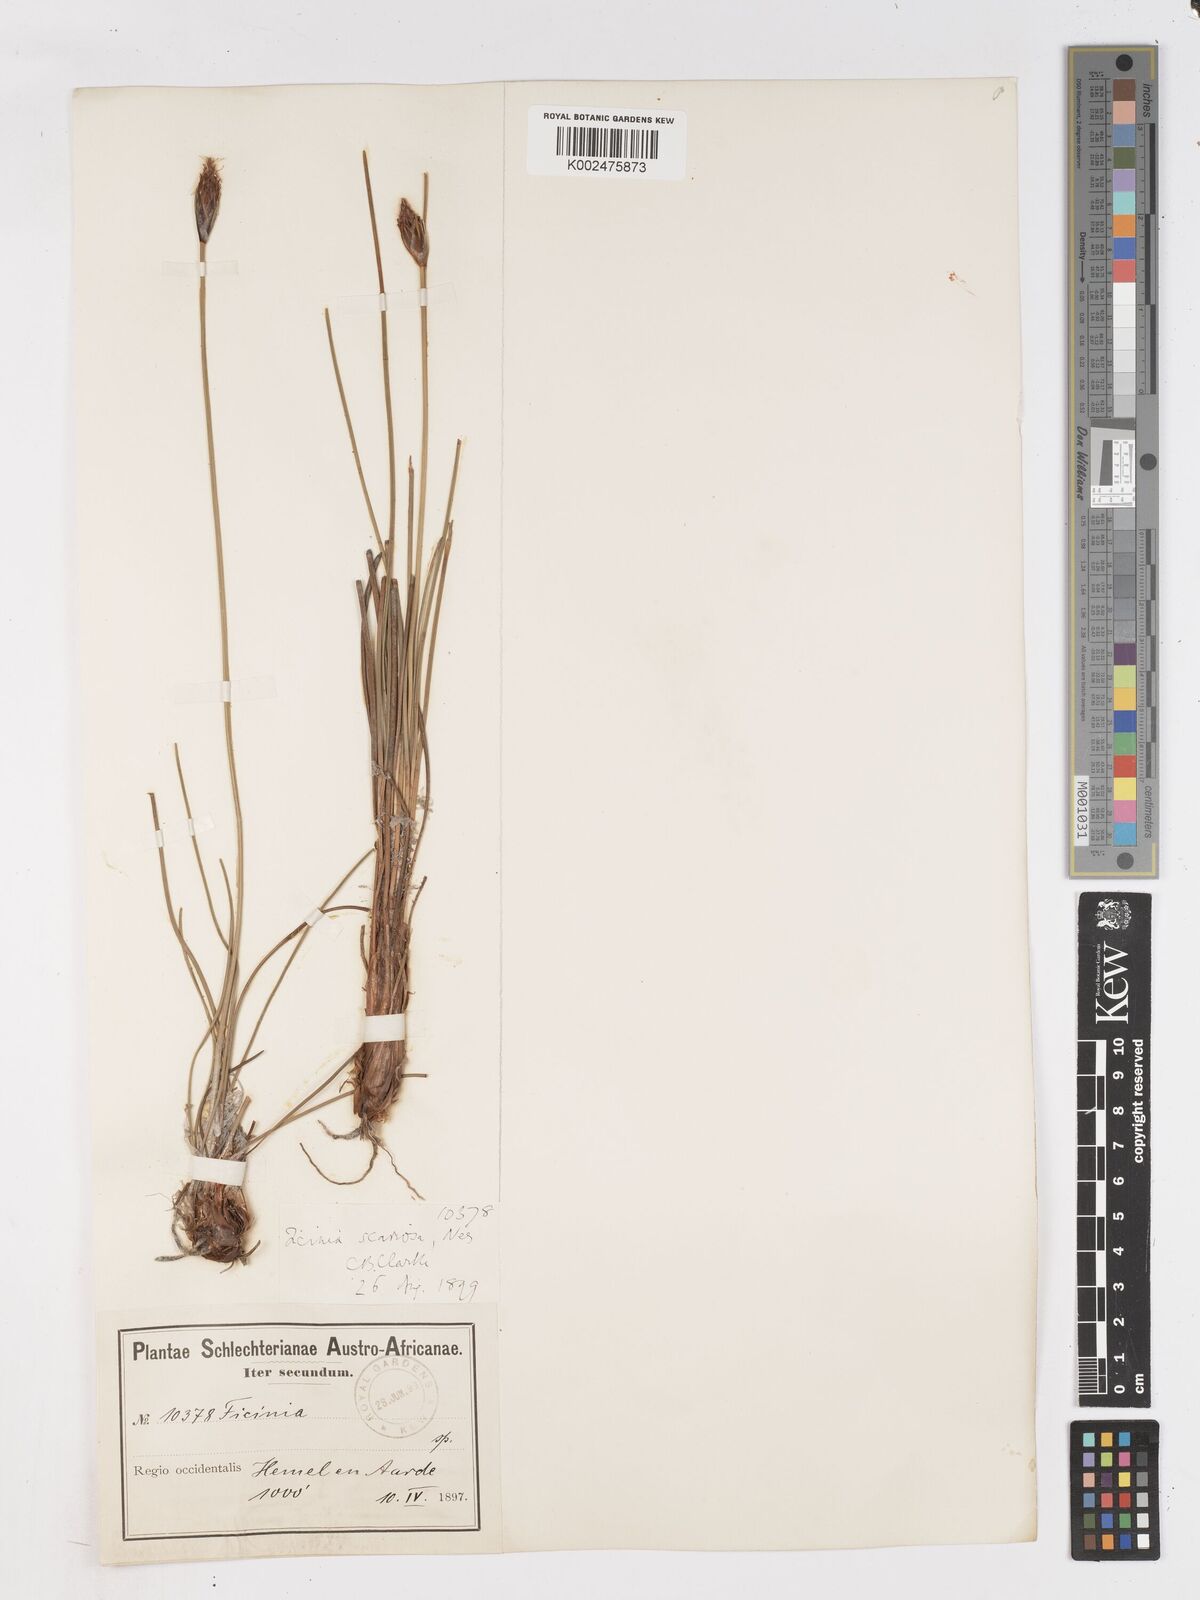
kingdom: Plantae
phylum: Tracheophyta
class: Liliopsida
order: Poales
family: Cyperaceae
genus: Ficinia
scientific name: Ficinia deusta
